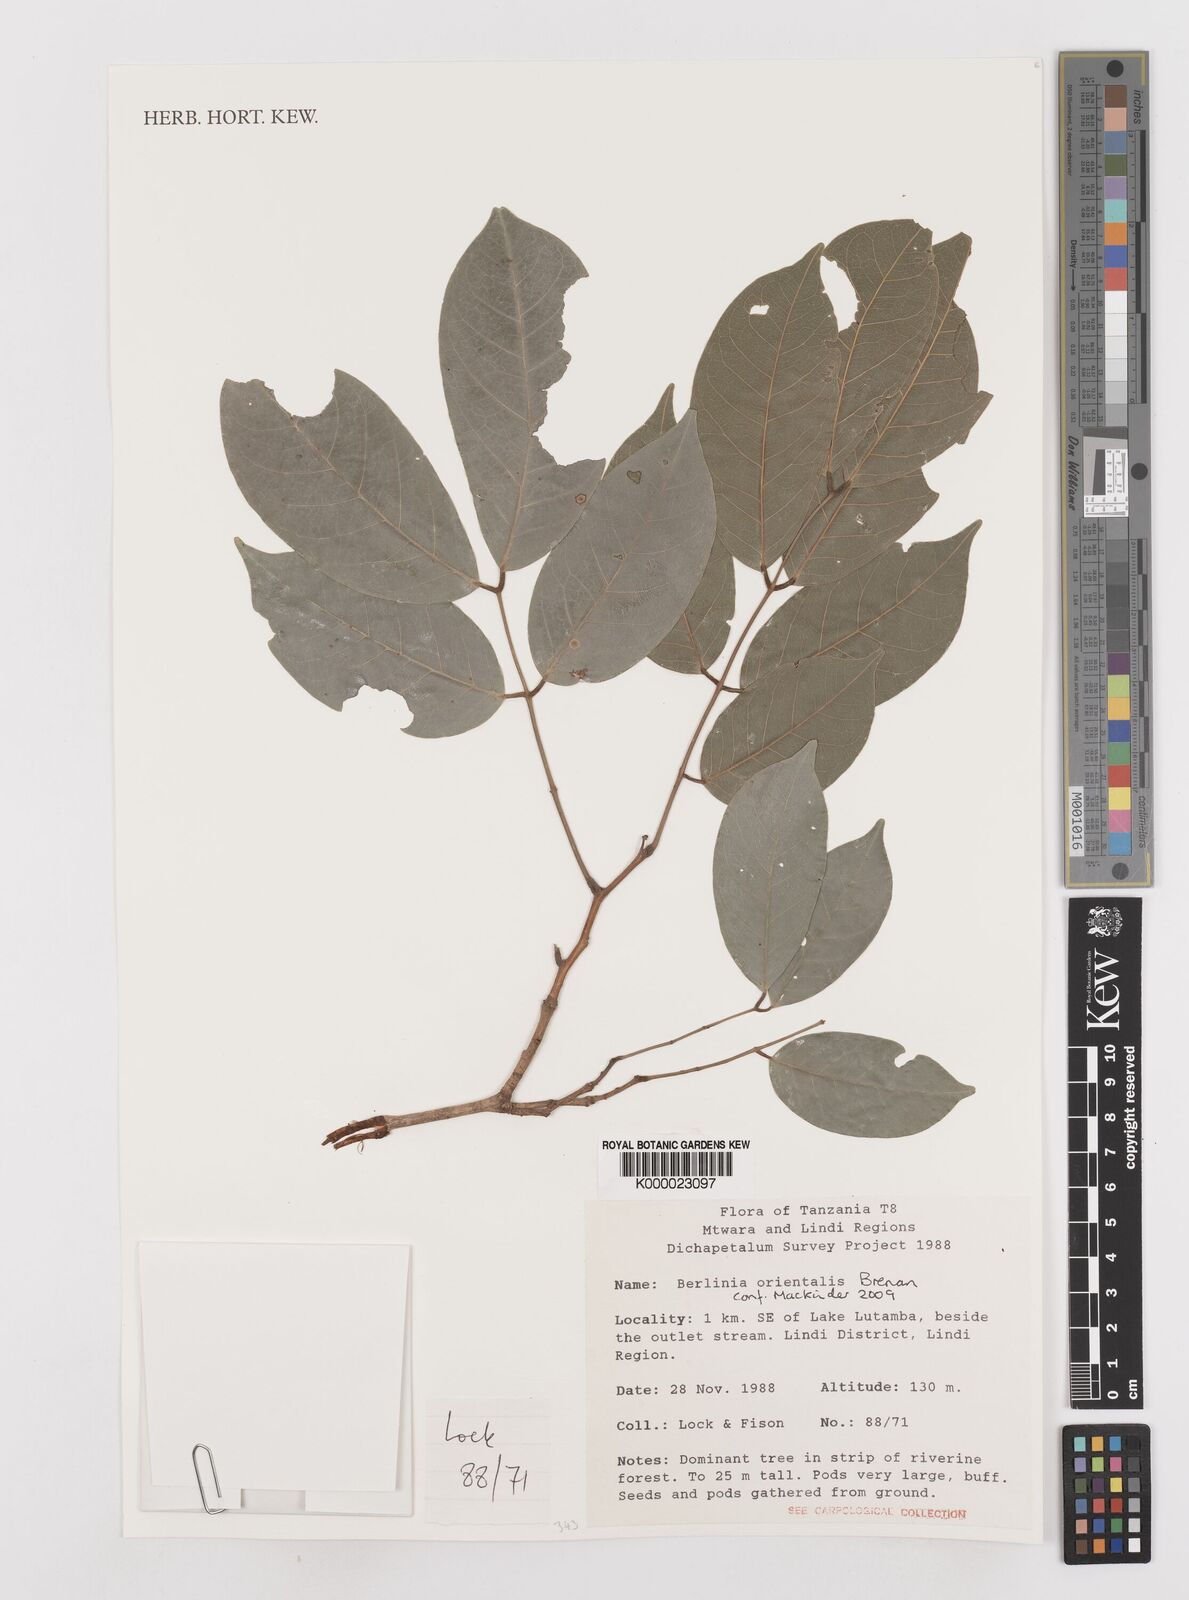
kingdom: Plantae
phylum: Tracheophyta
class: Magnoliopsida
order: Fabales
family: Fabaceae
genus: Berlinia
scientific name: Berlinia orientalis
